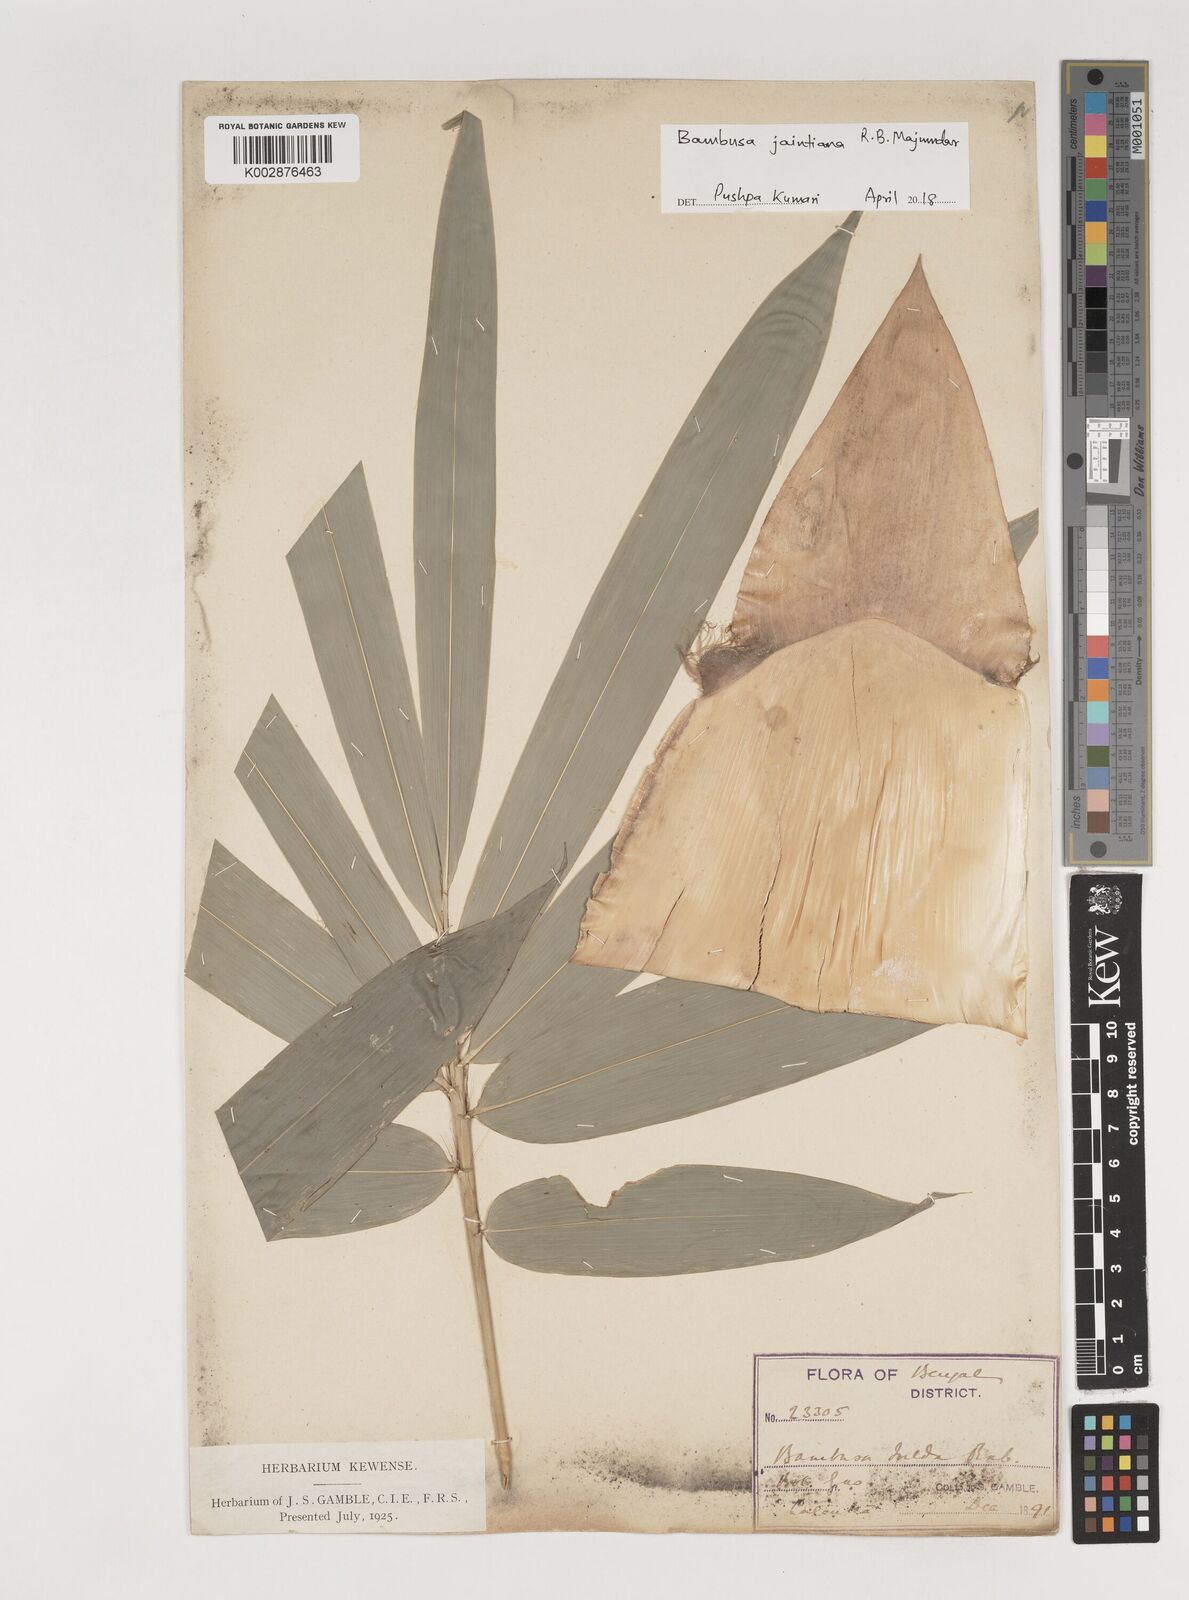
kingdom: Plantae
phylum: Tracheophyta
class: Liliopsida
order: Poales
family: Poaceae
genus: Bambusa
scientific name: Bambusa jaintiana
